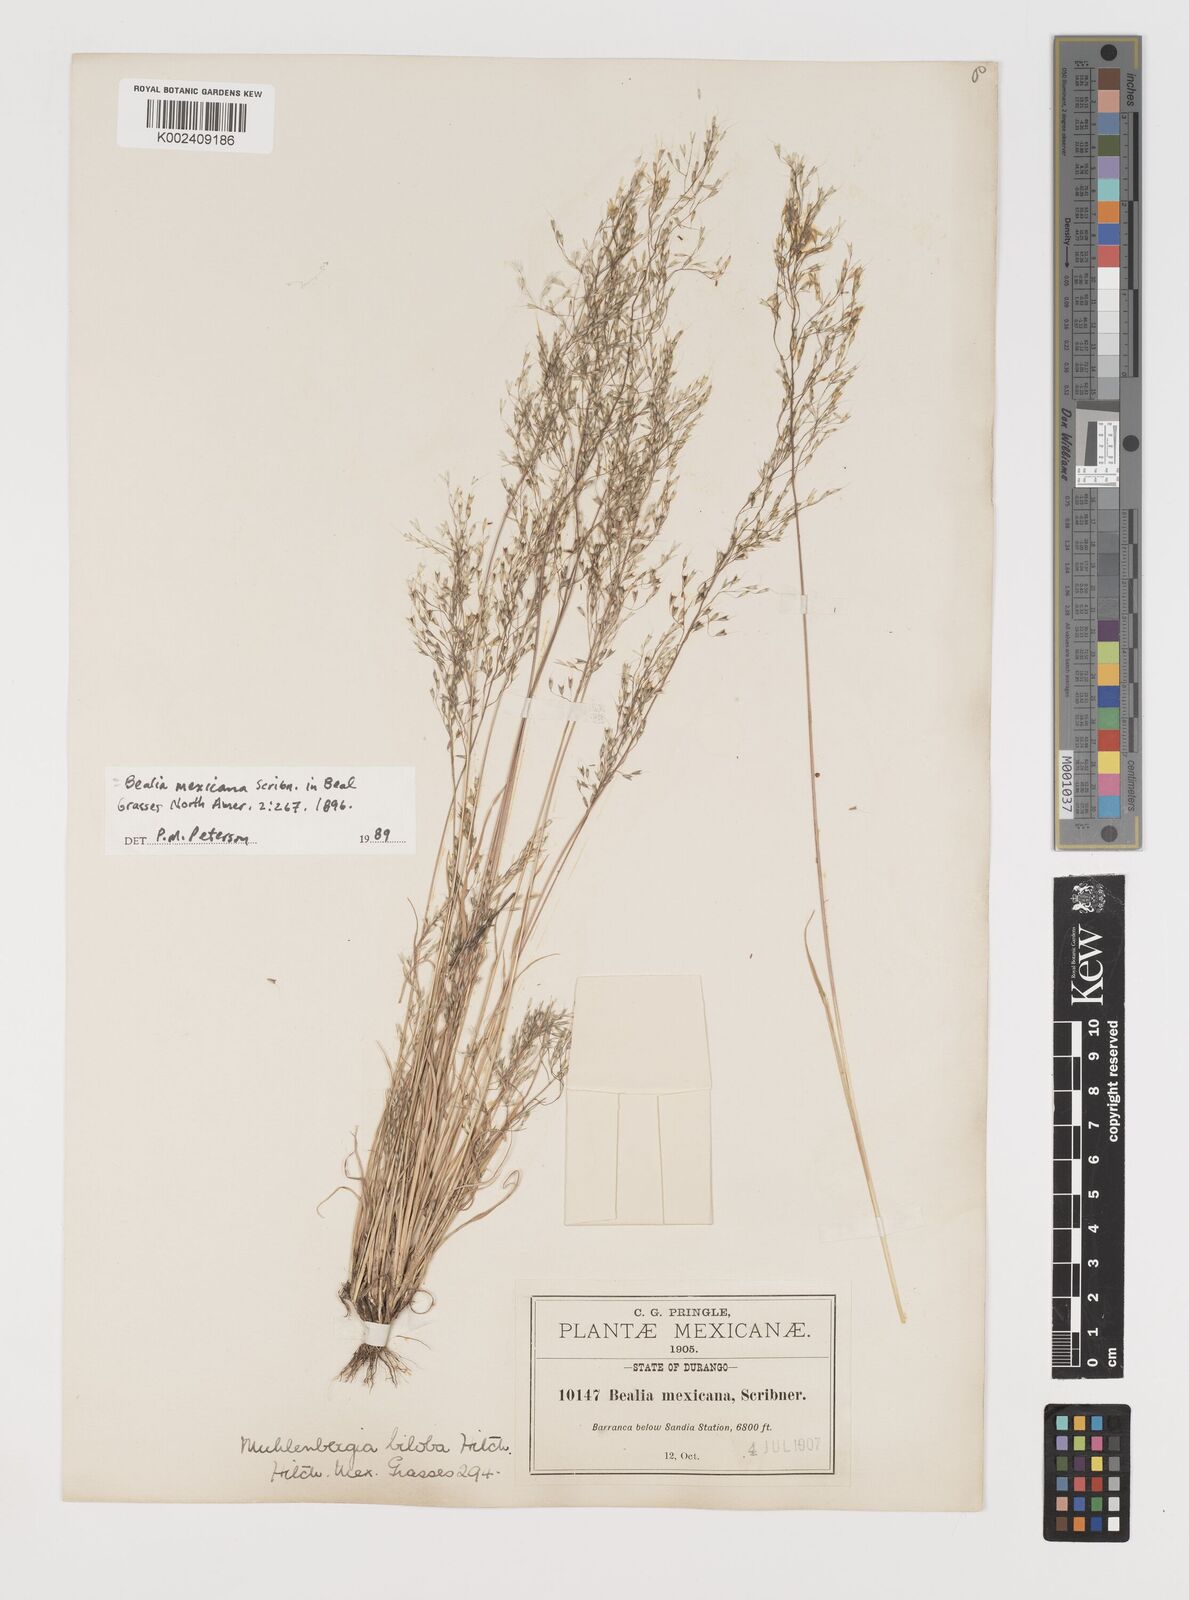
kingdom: Plantae
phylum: Tracheophyta
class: Liliopsida
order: Poales
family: Poaceae
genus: Muhlenbergia
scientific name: Muhlenbergia biloba
